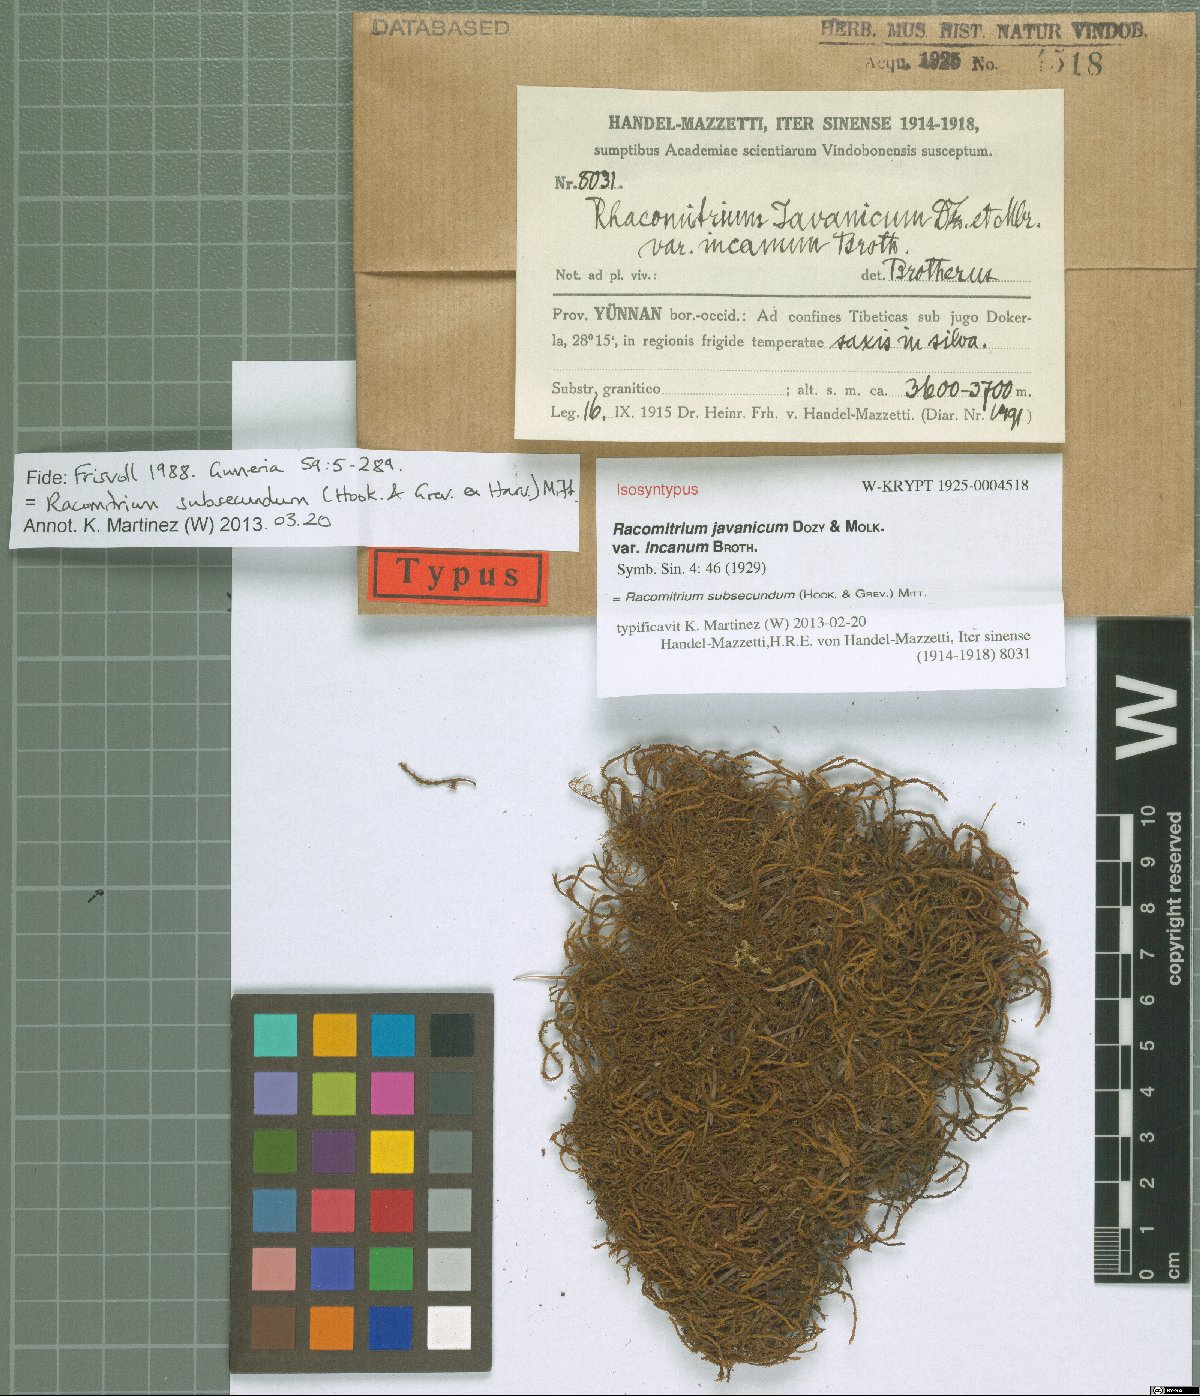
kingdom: Plantae
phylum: Bryophyta
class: Bryopsida
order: Grimmiales
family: Grimmiaceae
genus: Bucklandiella
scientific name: Bucklandiella subsecunda
